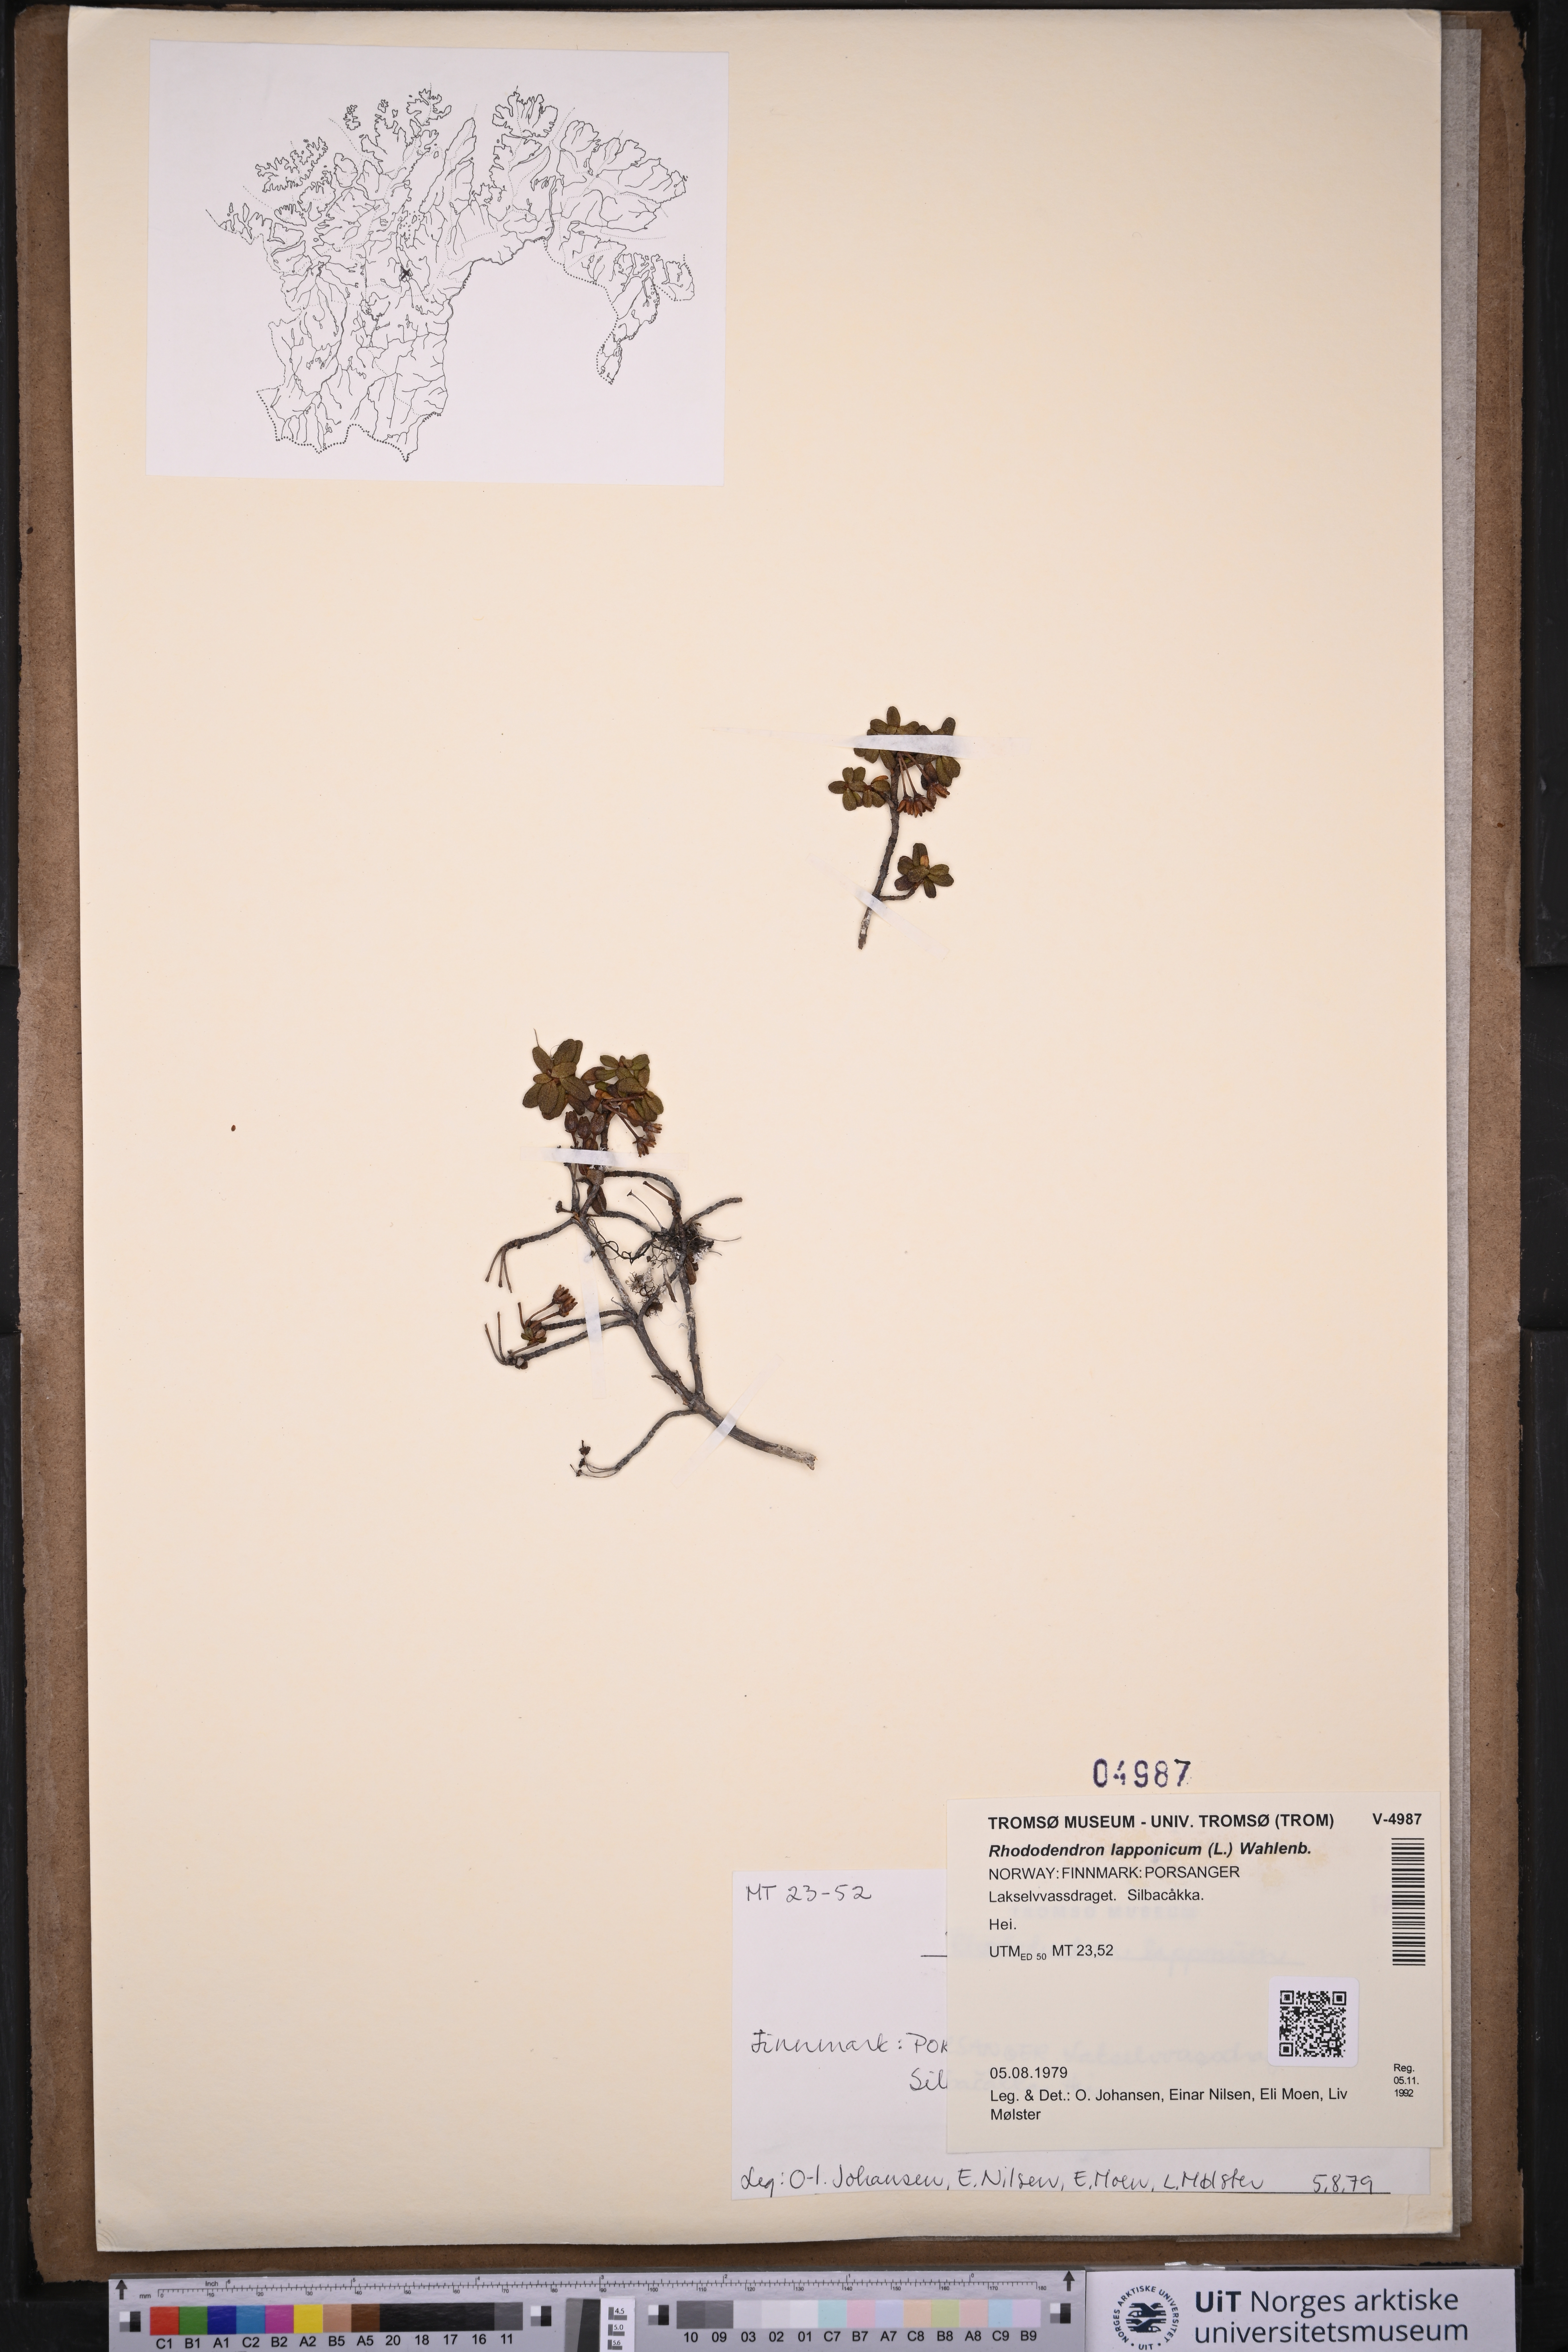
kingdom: Plantae
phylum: Tracheophyta
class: Magnoliopsida
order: Ericales
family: Ericaceae
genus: Rhododendron
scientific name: Rhododendron lapponicum
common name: Lapland rhododendron
